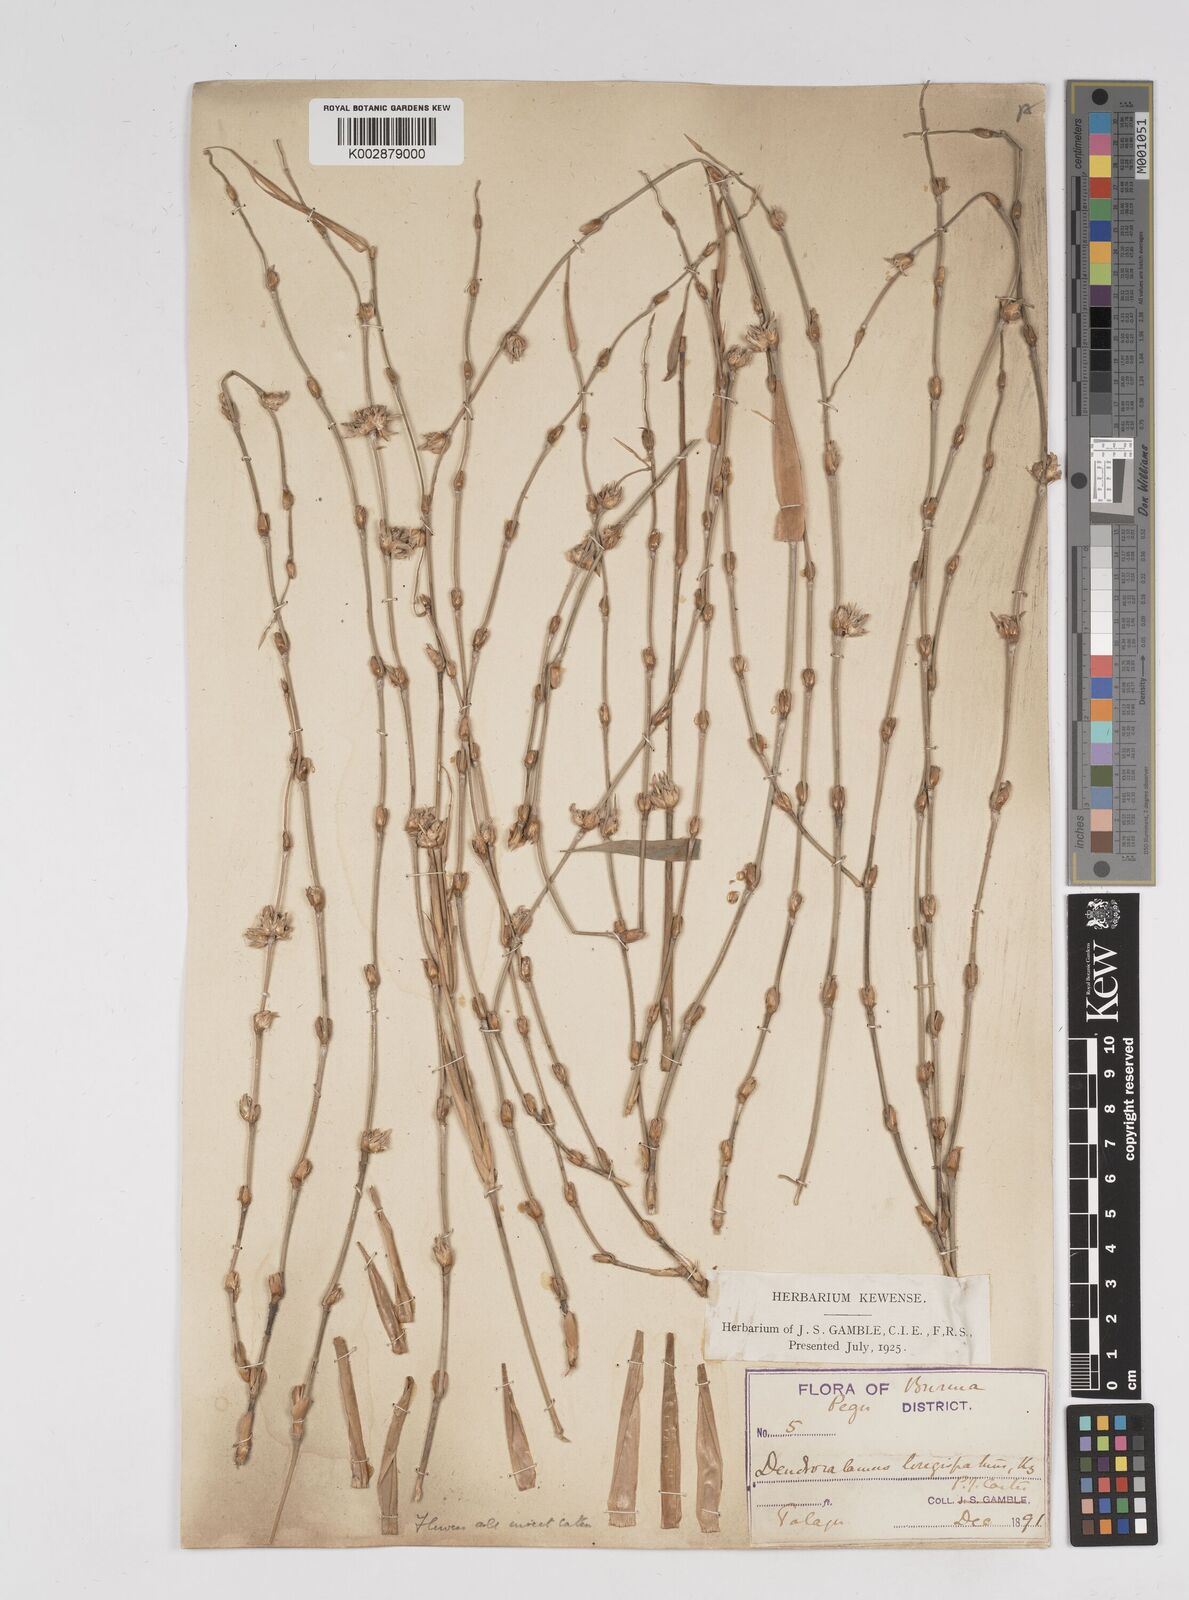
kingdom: Plantae
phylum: Tracheophyta
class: Liliopsida
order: Poales
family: Poaceae
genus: Dendrocalamus
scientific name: Dendrocalamus longispathus
